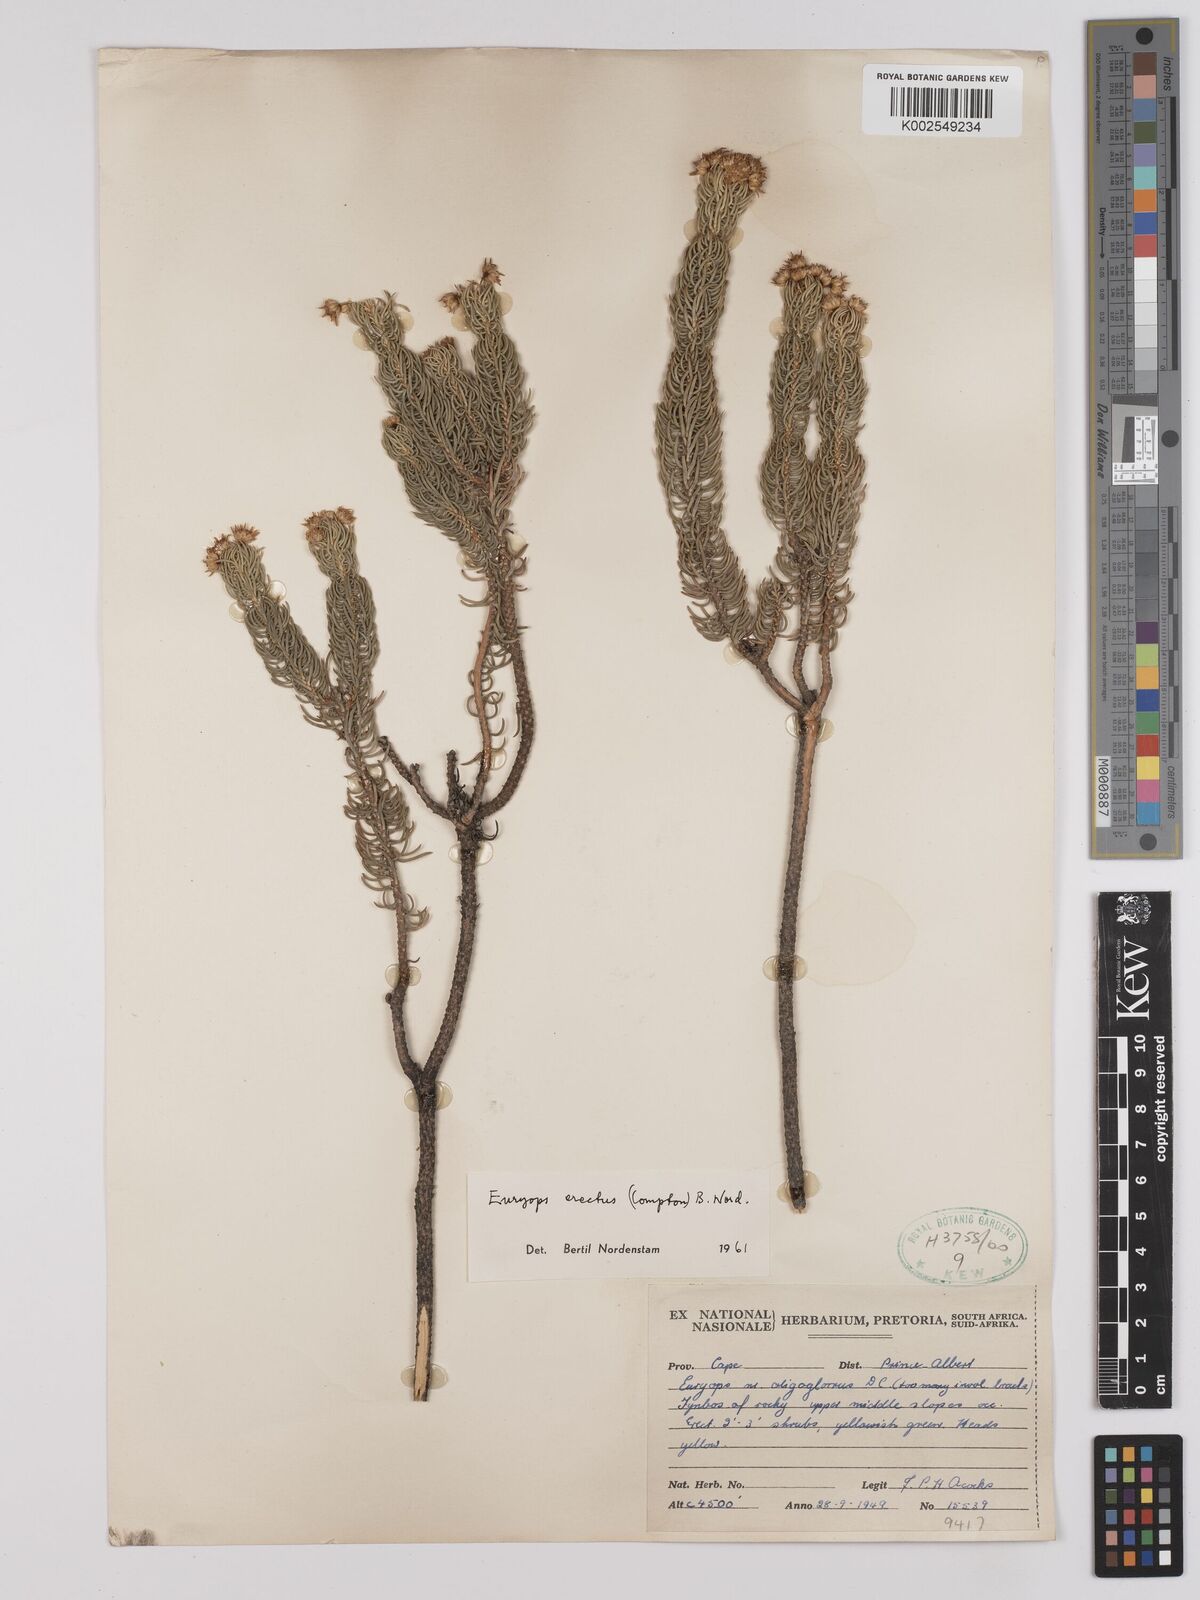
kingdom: Plantae
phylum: Tracheophyta
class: Magnoliopsida
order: Asterales
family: Asteraceae
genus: Euryops
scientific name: Euryops erectus
